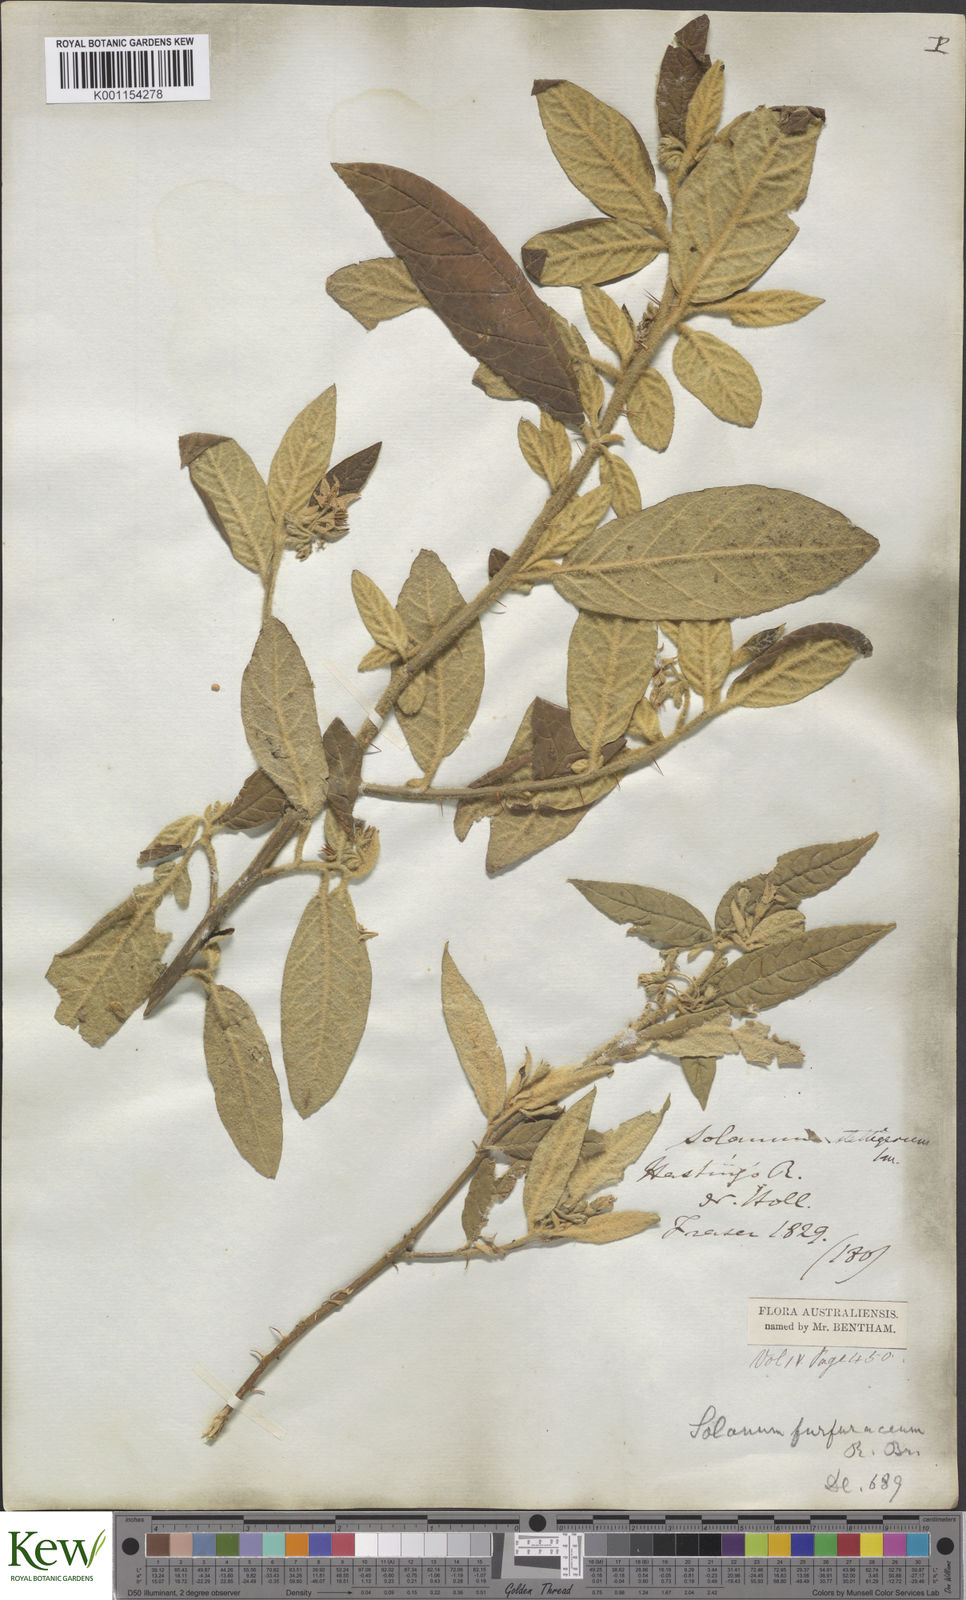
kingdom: Plantae
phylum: Tracheophyta
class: Magnoliopsida
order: Solanales
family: Solanaceae
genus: Solanum
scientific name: Solanum stelligerum
